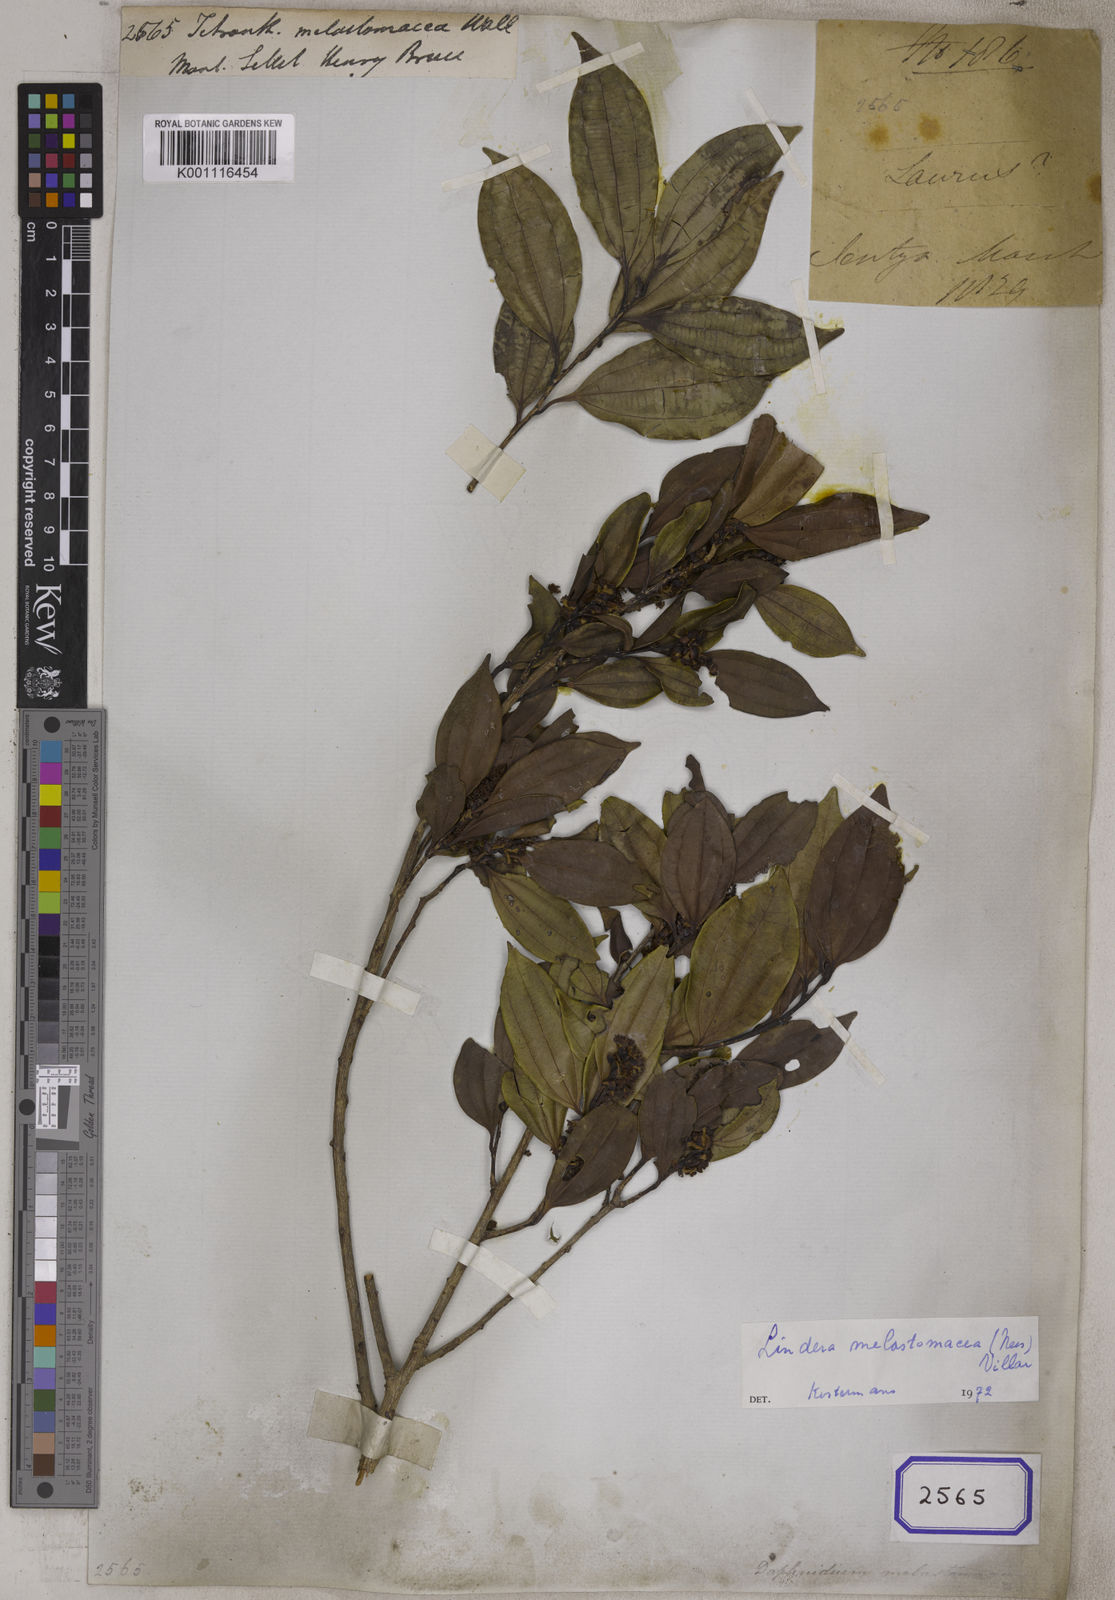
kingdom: Plantae
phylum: Tracheophyta
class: Magnoliopsida
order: Laurales
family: Lauraceae
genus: Lindera
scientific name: Lindera melastomacea
